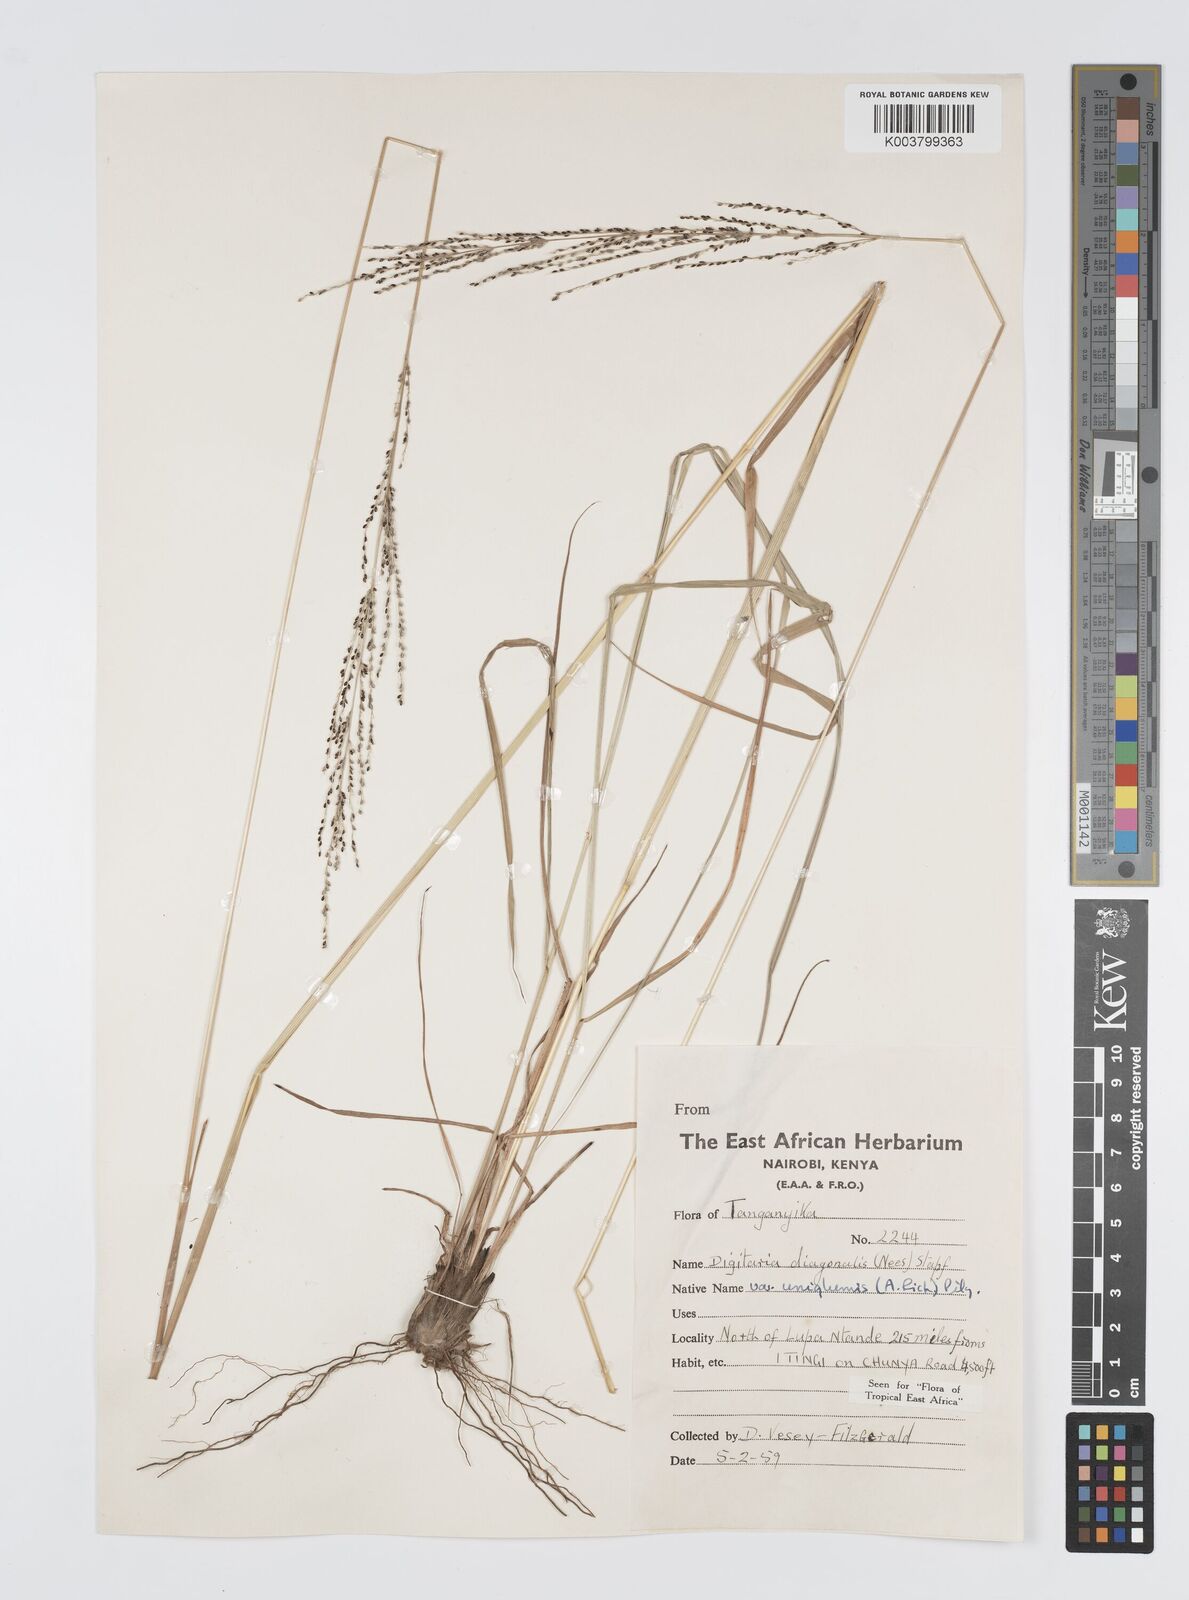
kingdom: Plantae
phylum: Tracheophyta
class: Liliopsida
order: Poales
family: Poaceae
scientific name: Poaceae
